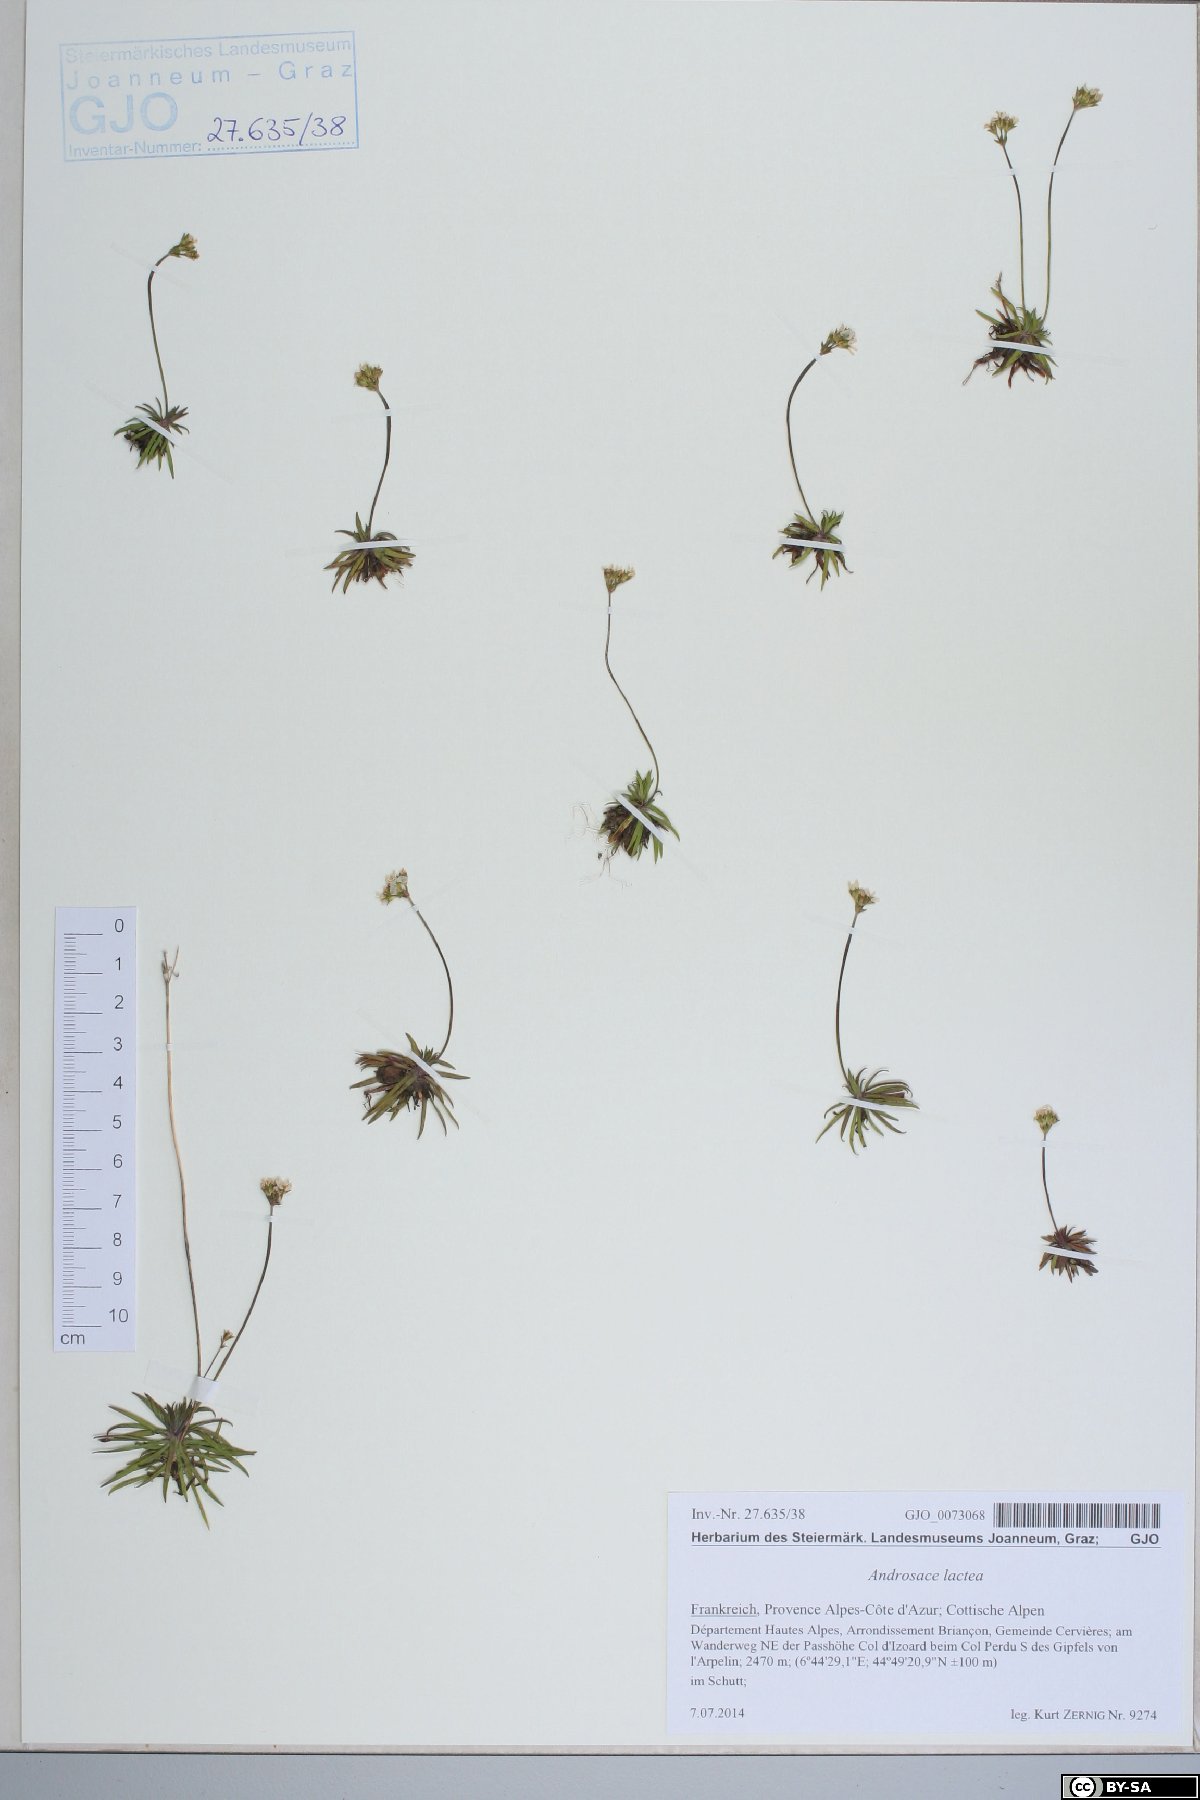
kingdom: Plantae
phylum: Tracheophyta
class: Magnoliopsida
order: Ericales
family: Primulaceae
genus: Androsace
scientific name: Androsace lactea
